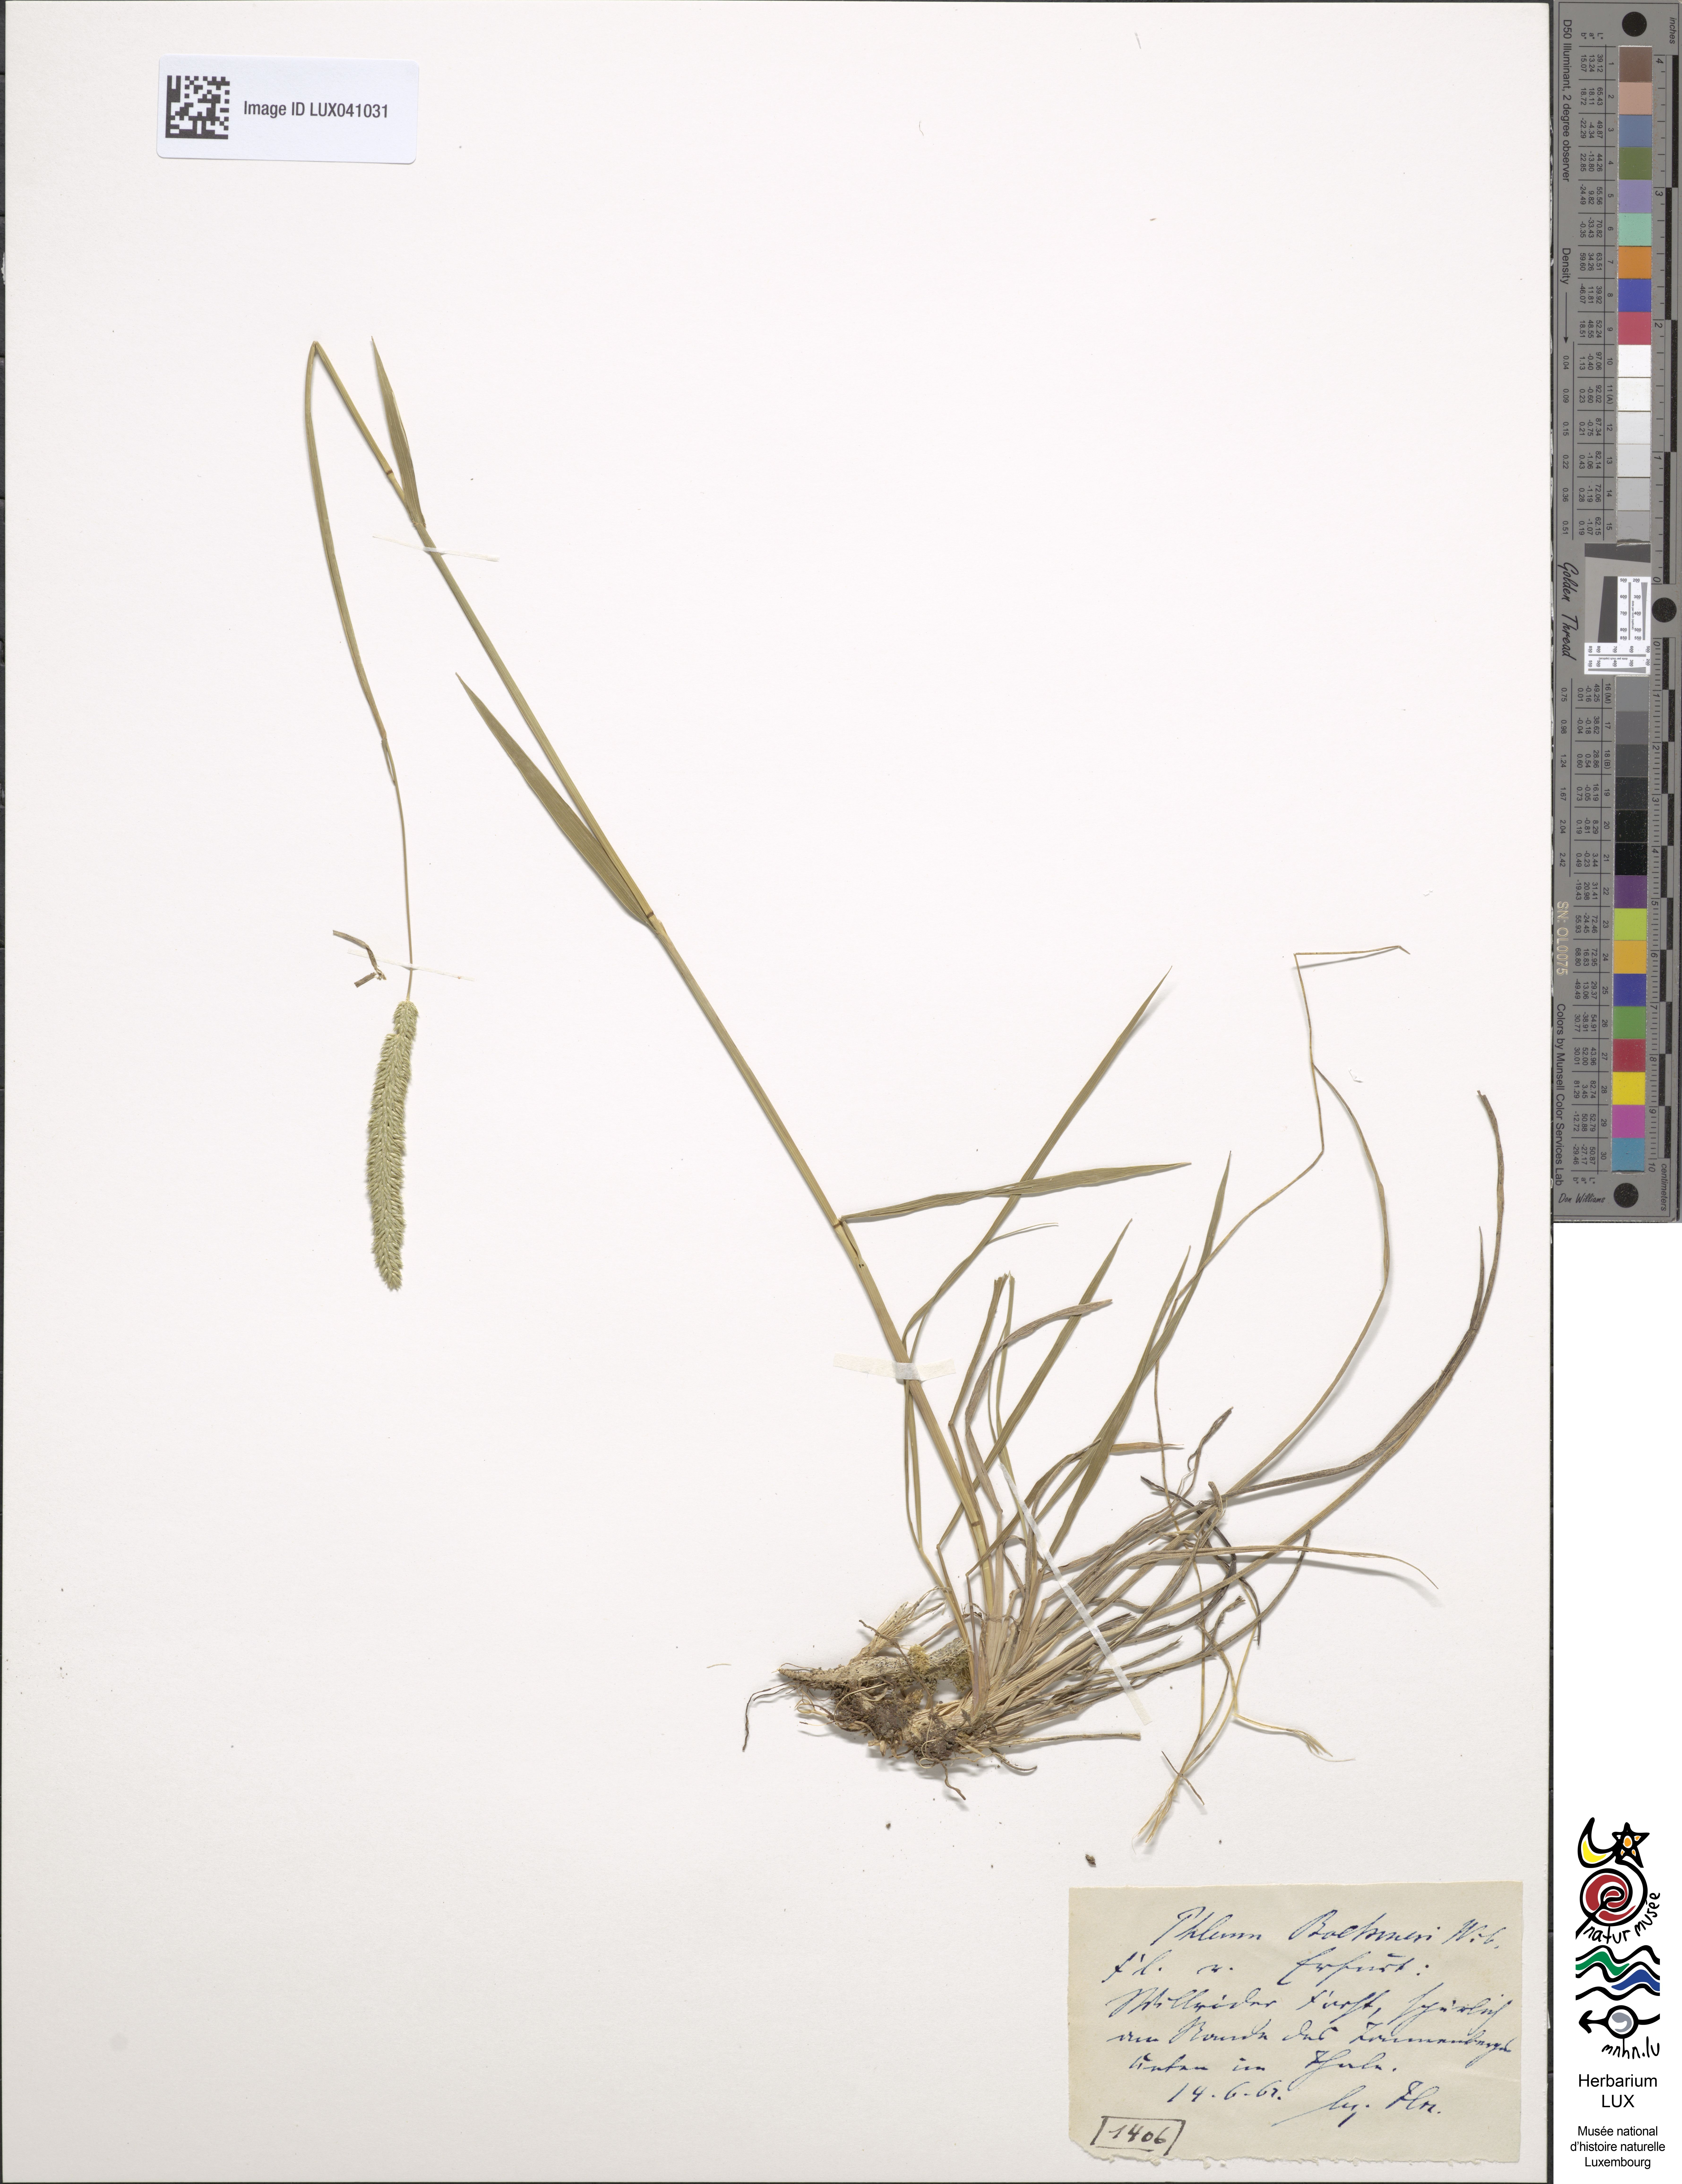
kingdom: Plantae
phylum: Tracheophyta
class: Liliopsida
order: Poales
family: Poaceae
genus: Phleum
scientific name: Phleum phleoides
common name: Purple-stem cat's-tail
